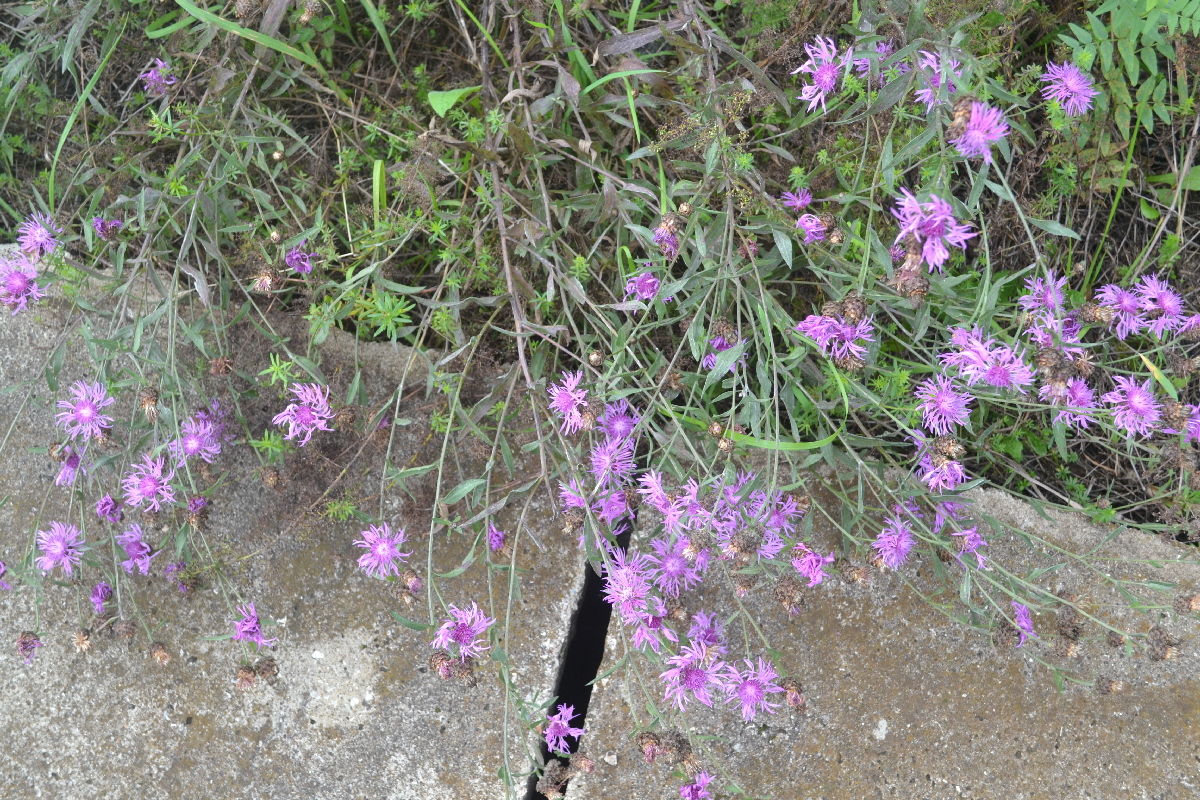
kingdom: Plantae
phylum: Tracheophyta
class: Magnoliopsida
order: Asterales
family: Asteraceae
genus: Centaurea
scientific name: Centaurea jacea
